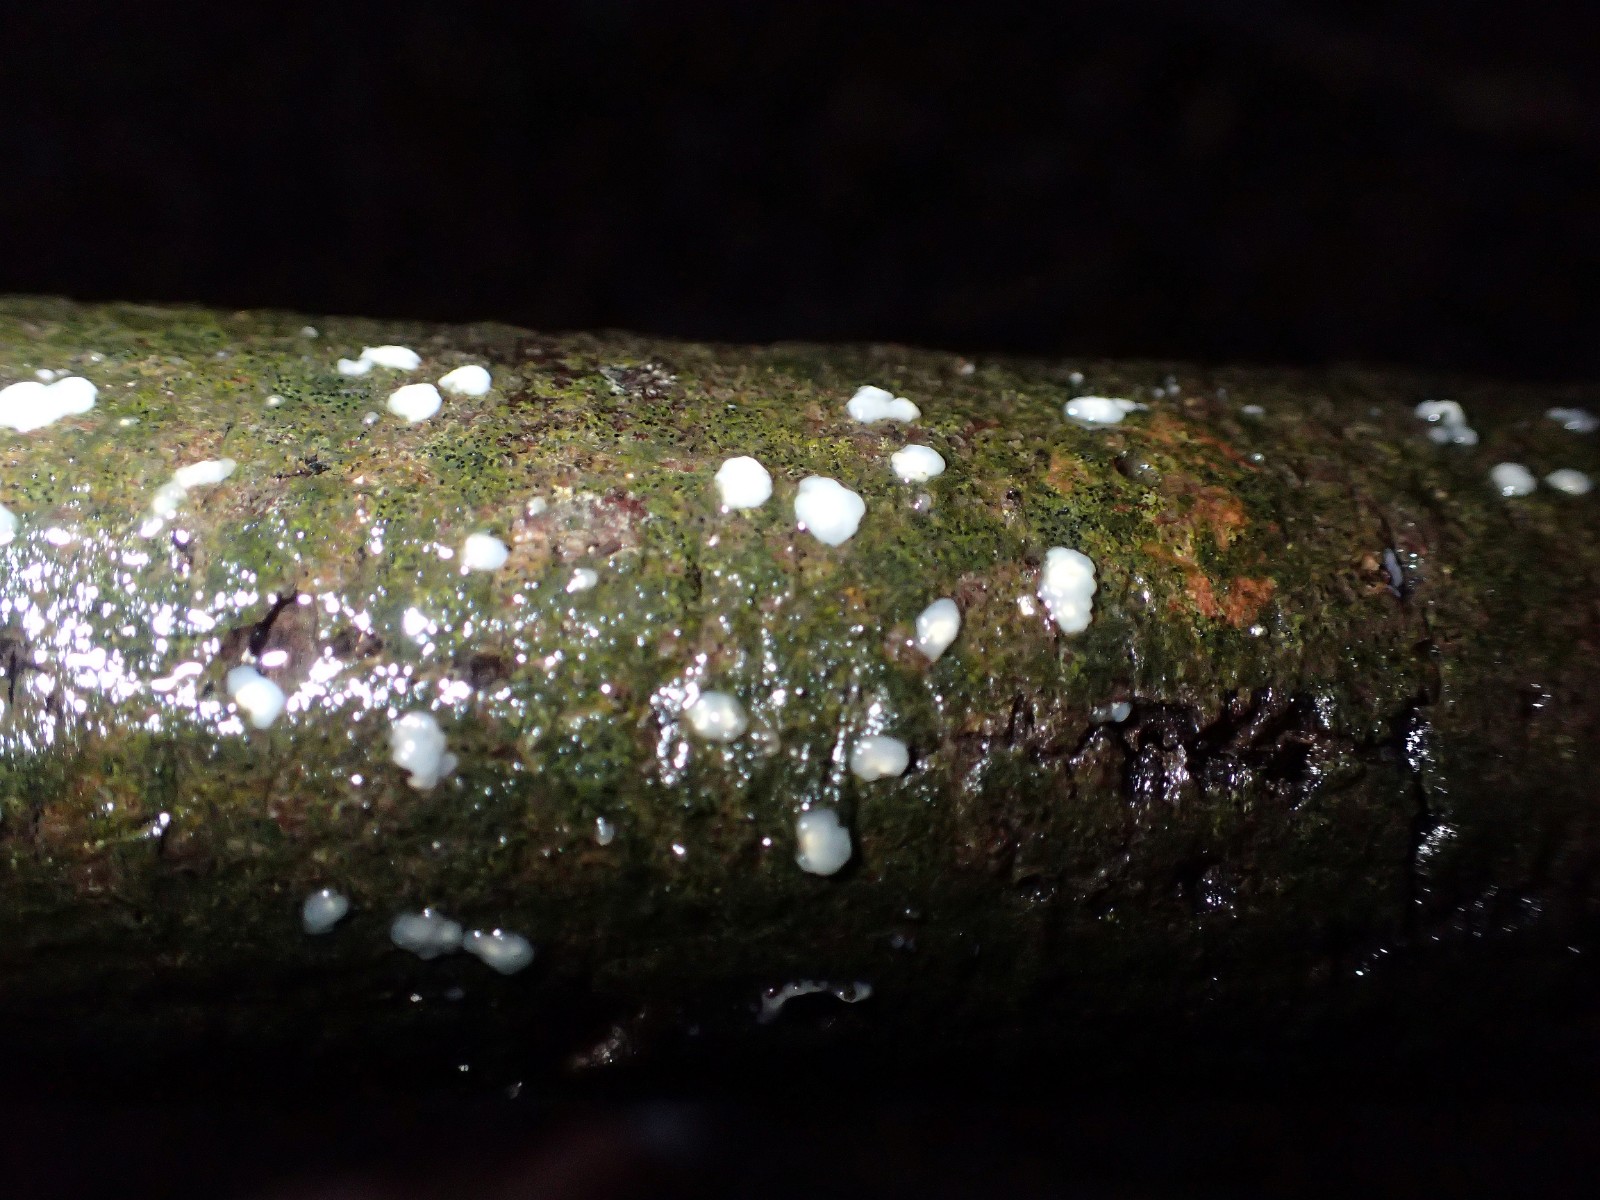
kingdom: Fungi
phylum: Basidiomycota
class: Agaricomycetes
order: Auriculariales
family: Hyaloriaceae
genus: Myxarium
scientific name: Myxarium nucleatum
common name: klar bævretop
